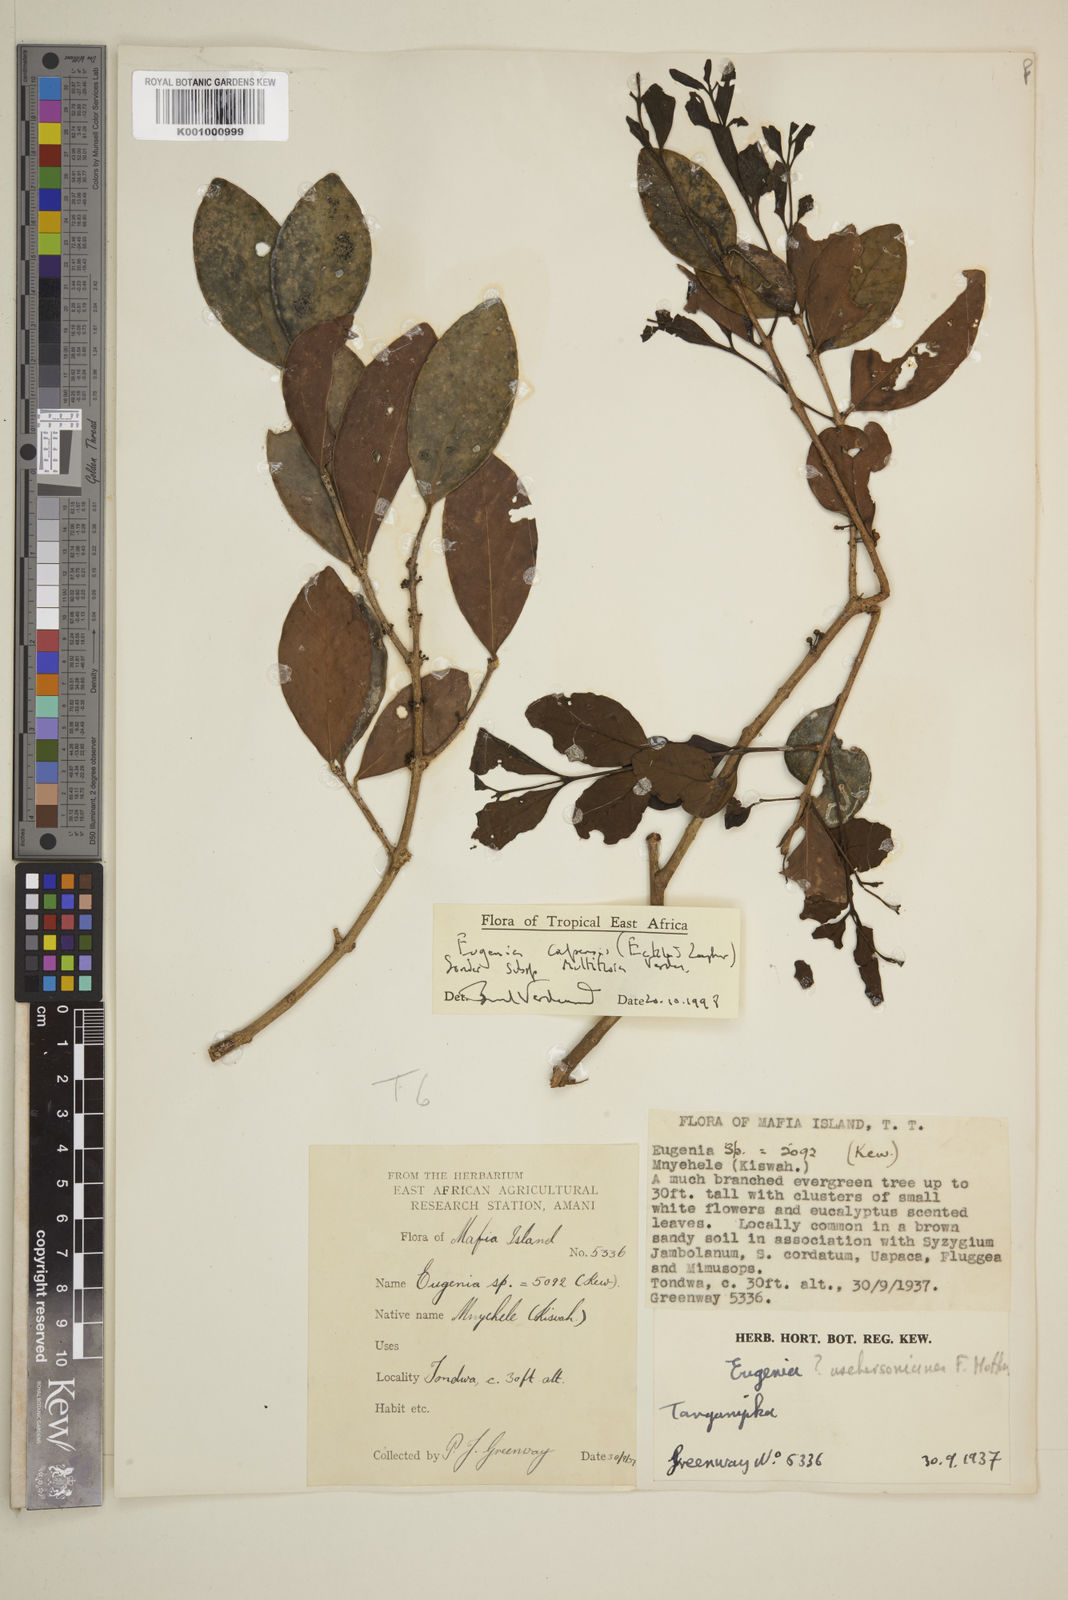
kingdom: Plantae
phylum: Tracheophyta
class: Magnoliopsida
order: Myrtales
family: Myrtaceae
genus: Eugenia
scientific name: Eugenia capensis
